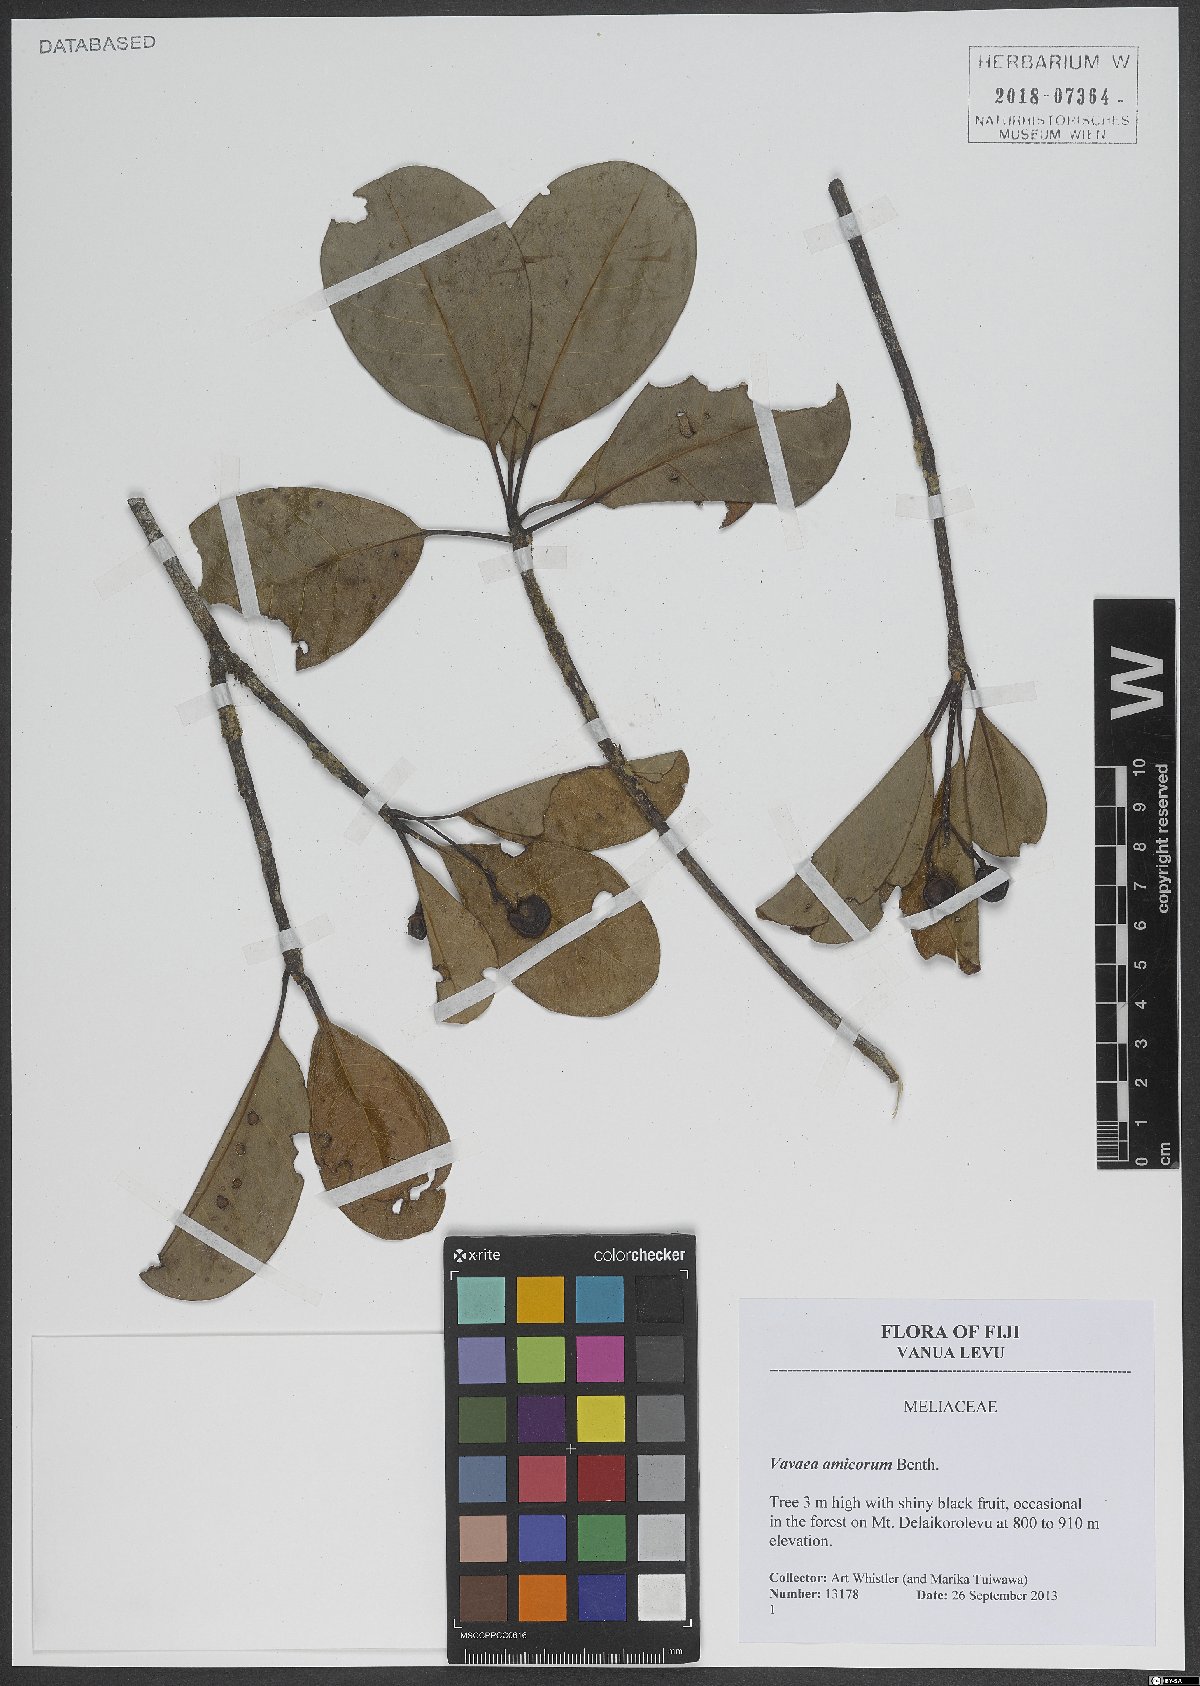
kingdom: Plantae
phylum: Tracheophyta
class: Magnoliopsida
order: Sapindales
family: Meliaceae
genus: Vavaea
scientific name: Vavaea amicorum
